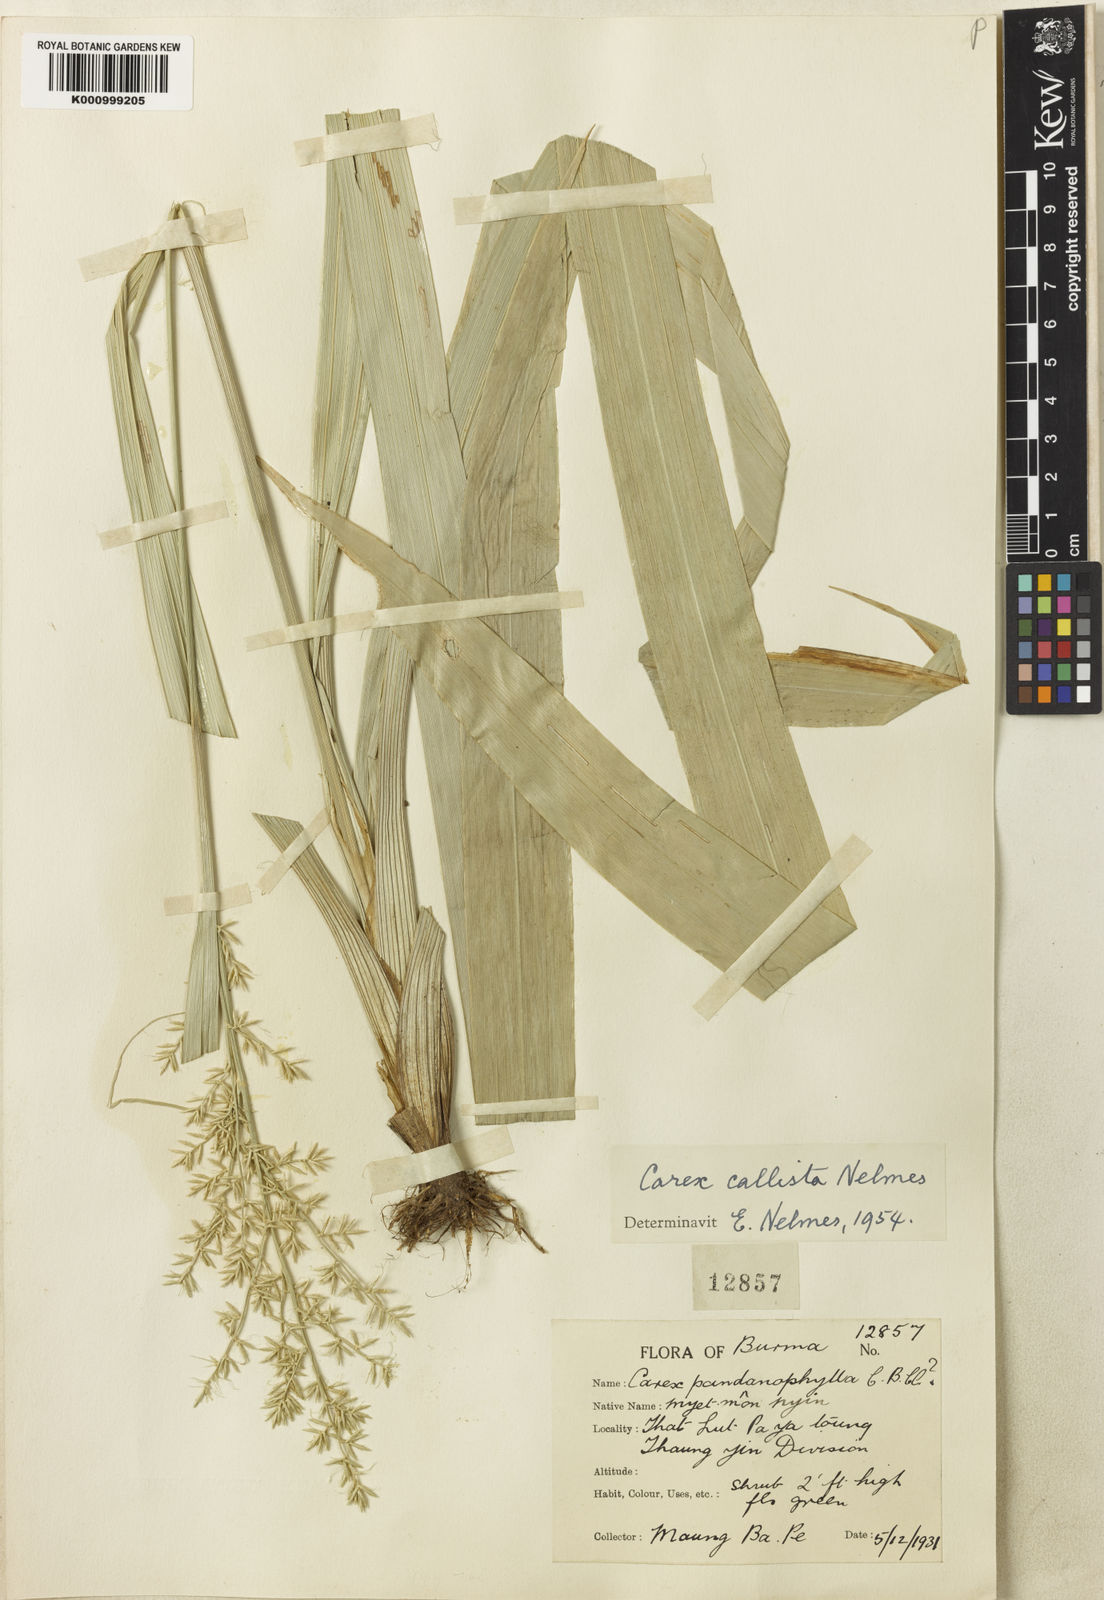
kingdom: Plantae
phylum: Tracheophyta
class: Liliopsida
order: Poales
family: Cyperaceae
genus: Carex
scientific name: Carex callista
